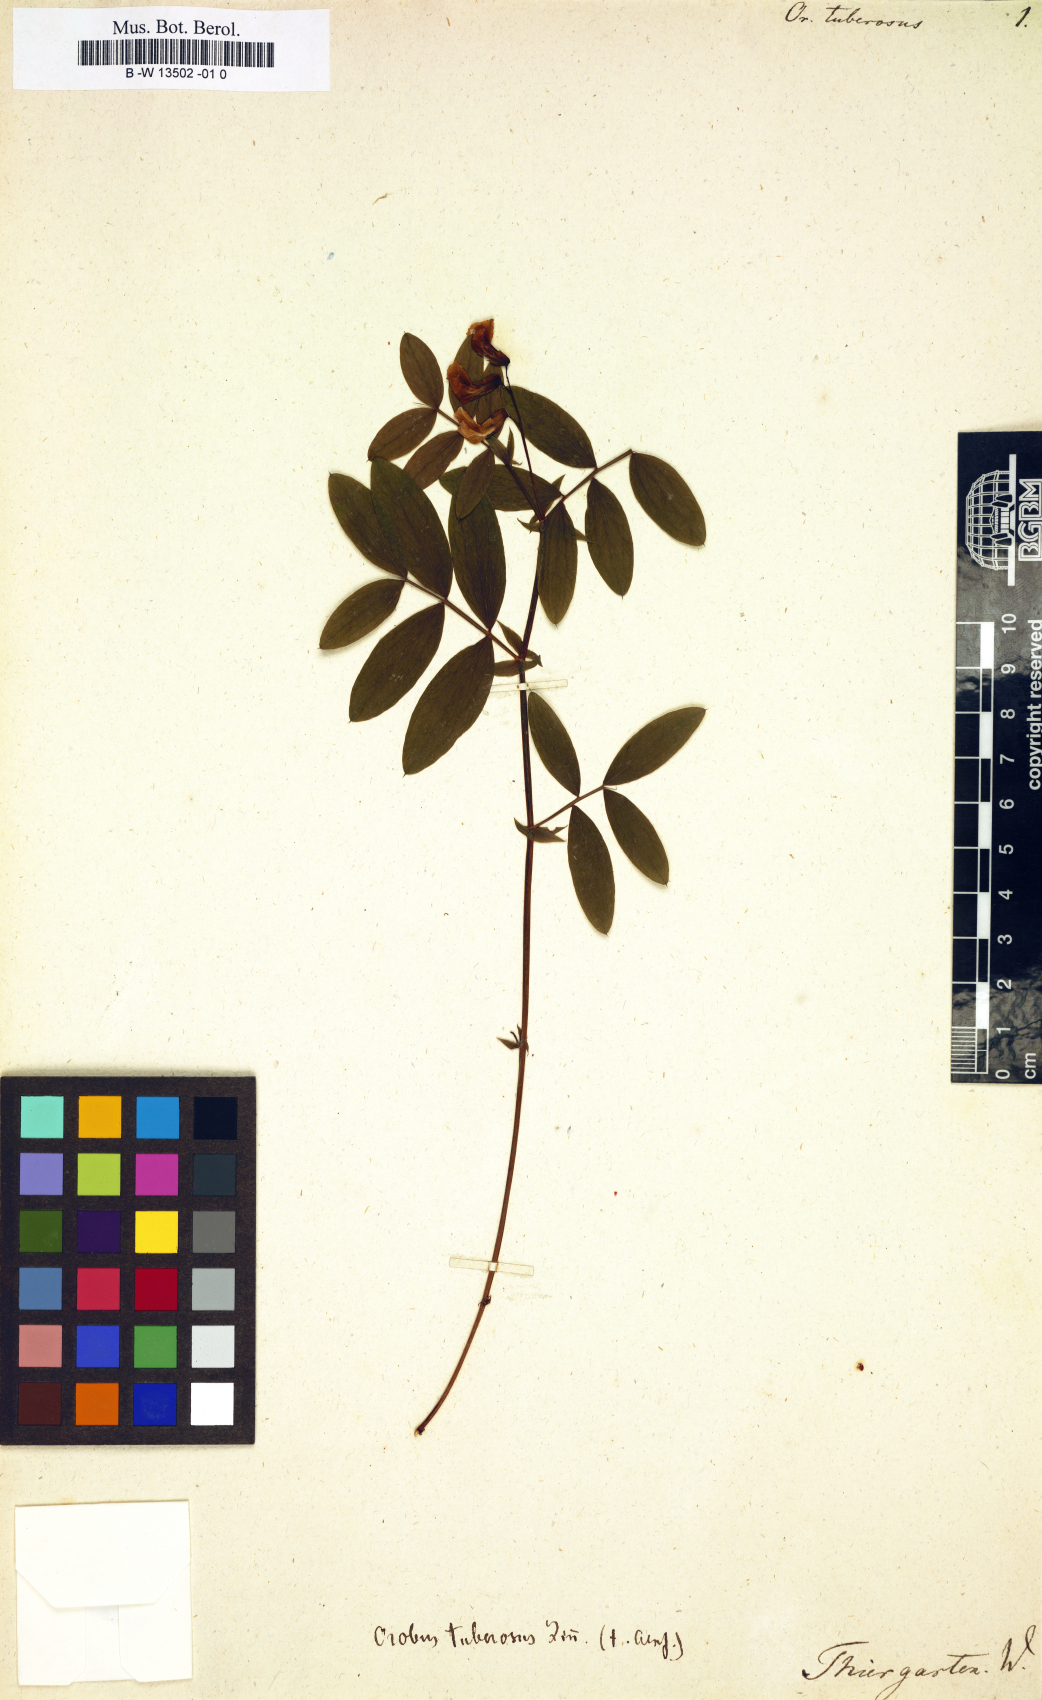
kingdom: Plantae
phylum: Tracheophyta
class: Magnoliopsida
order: Fabales
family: Fabaceae
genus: Lathyrus
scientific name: Lathyrus linifolius
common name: Bitter-vetch
